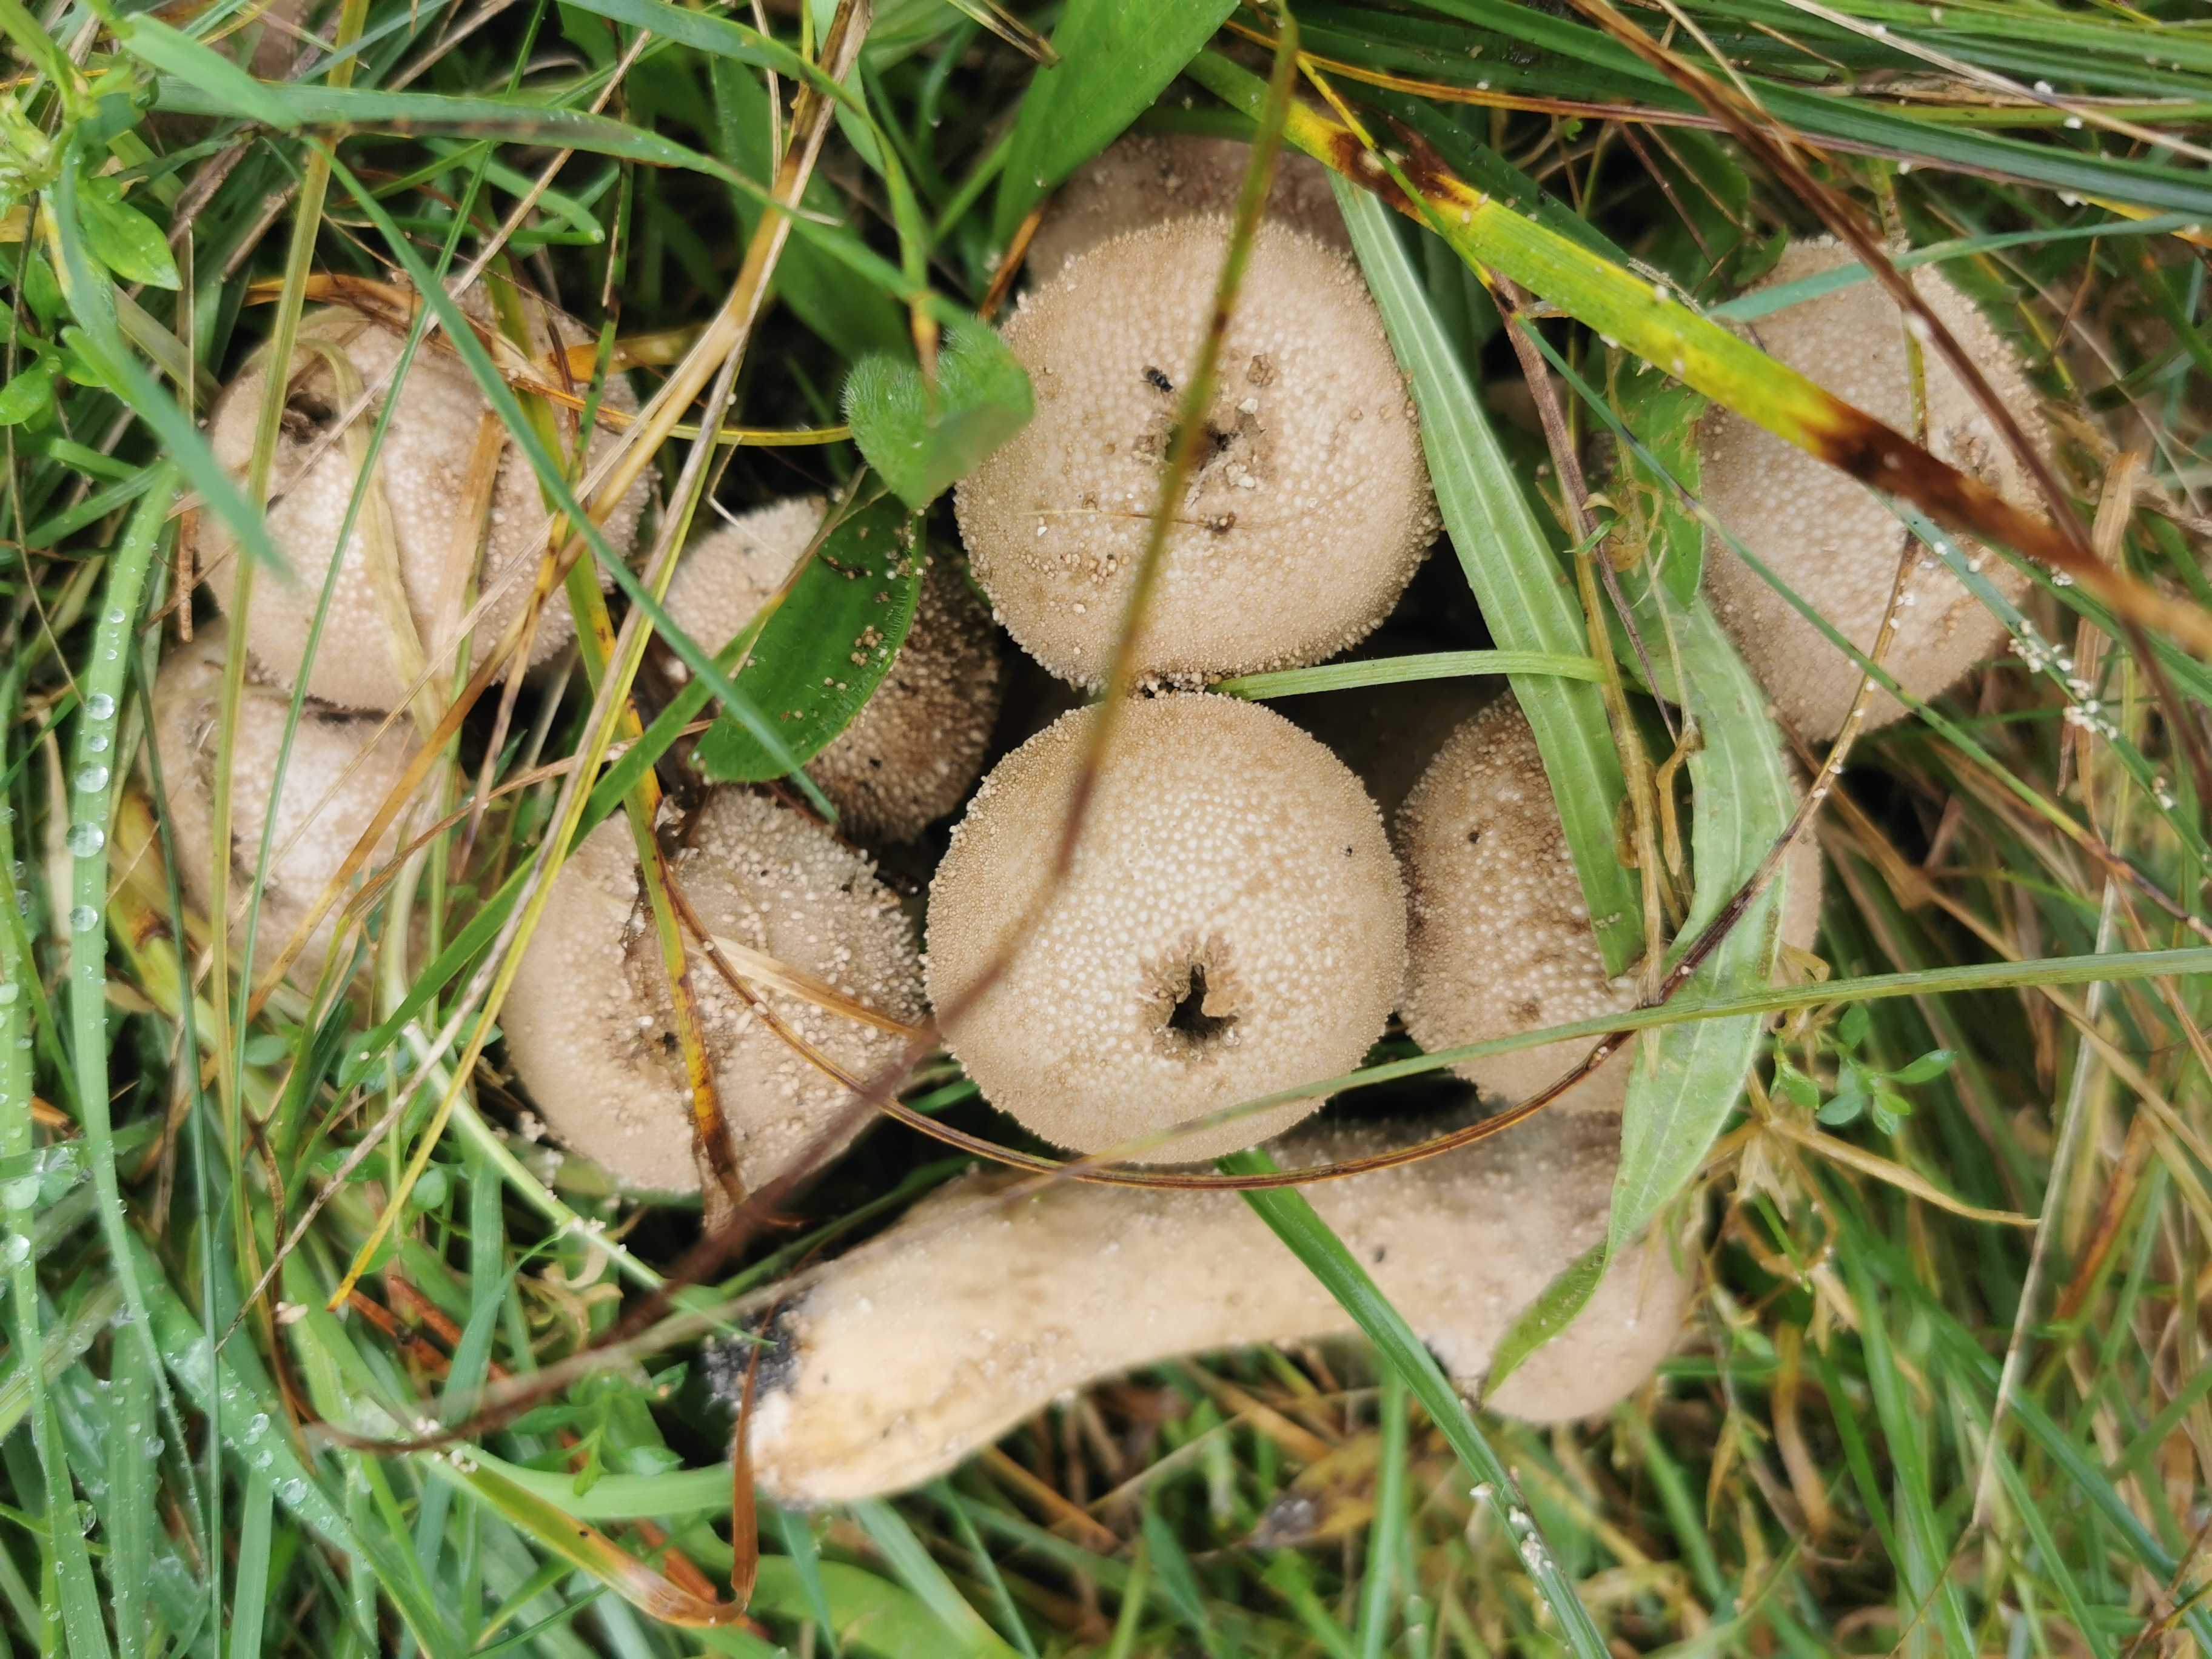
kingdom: Fungi
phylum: Basidiomycota
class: Agaricomycetes
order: Agaricales
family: Lycoperdaceae
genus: Lycoperdon
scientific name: Lycoperdon perlatum
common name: krystal-støvbold
